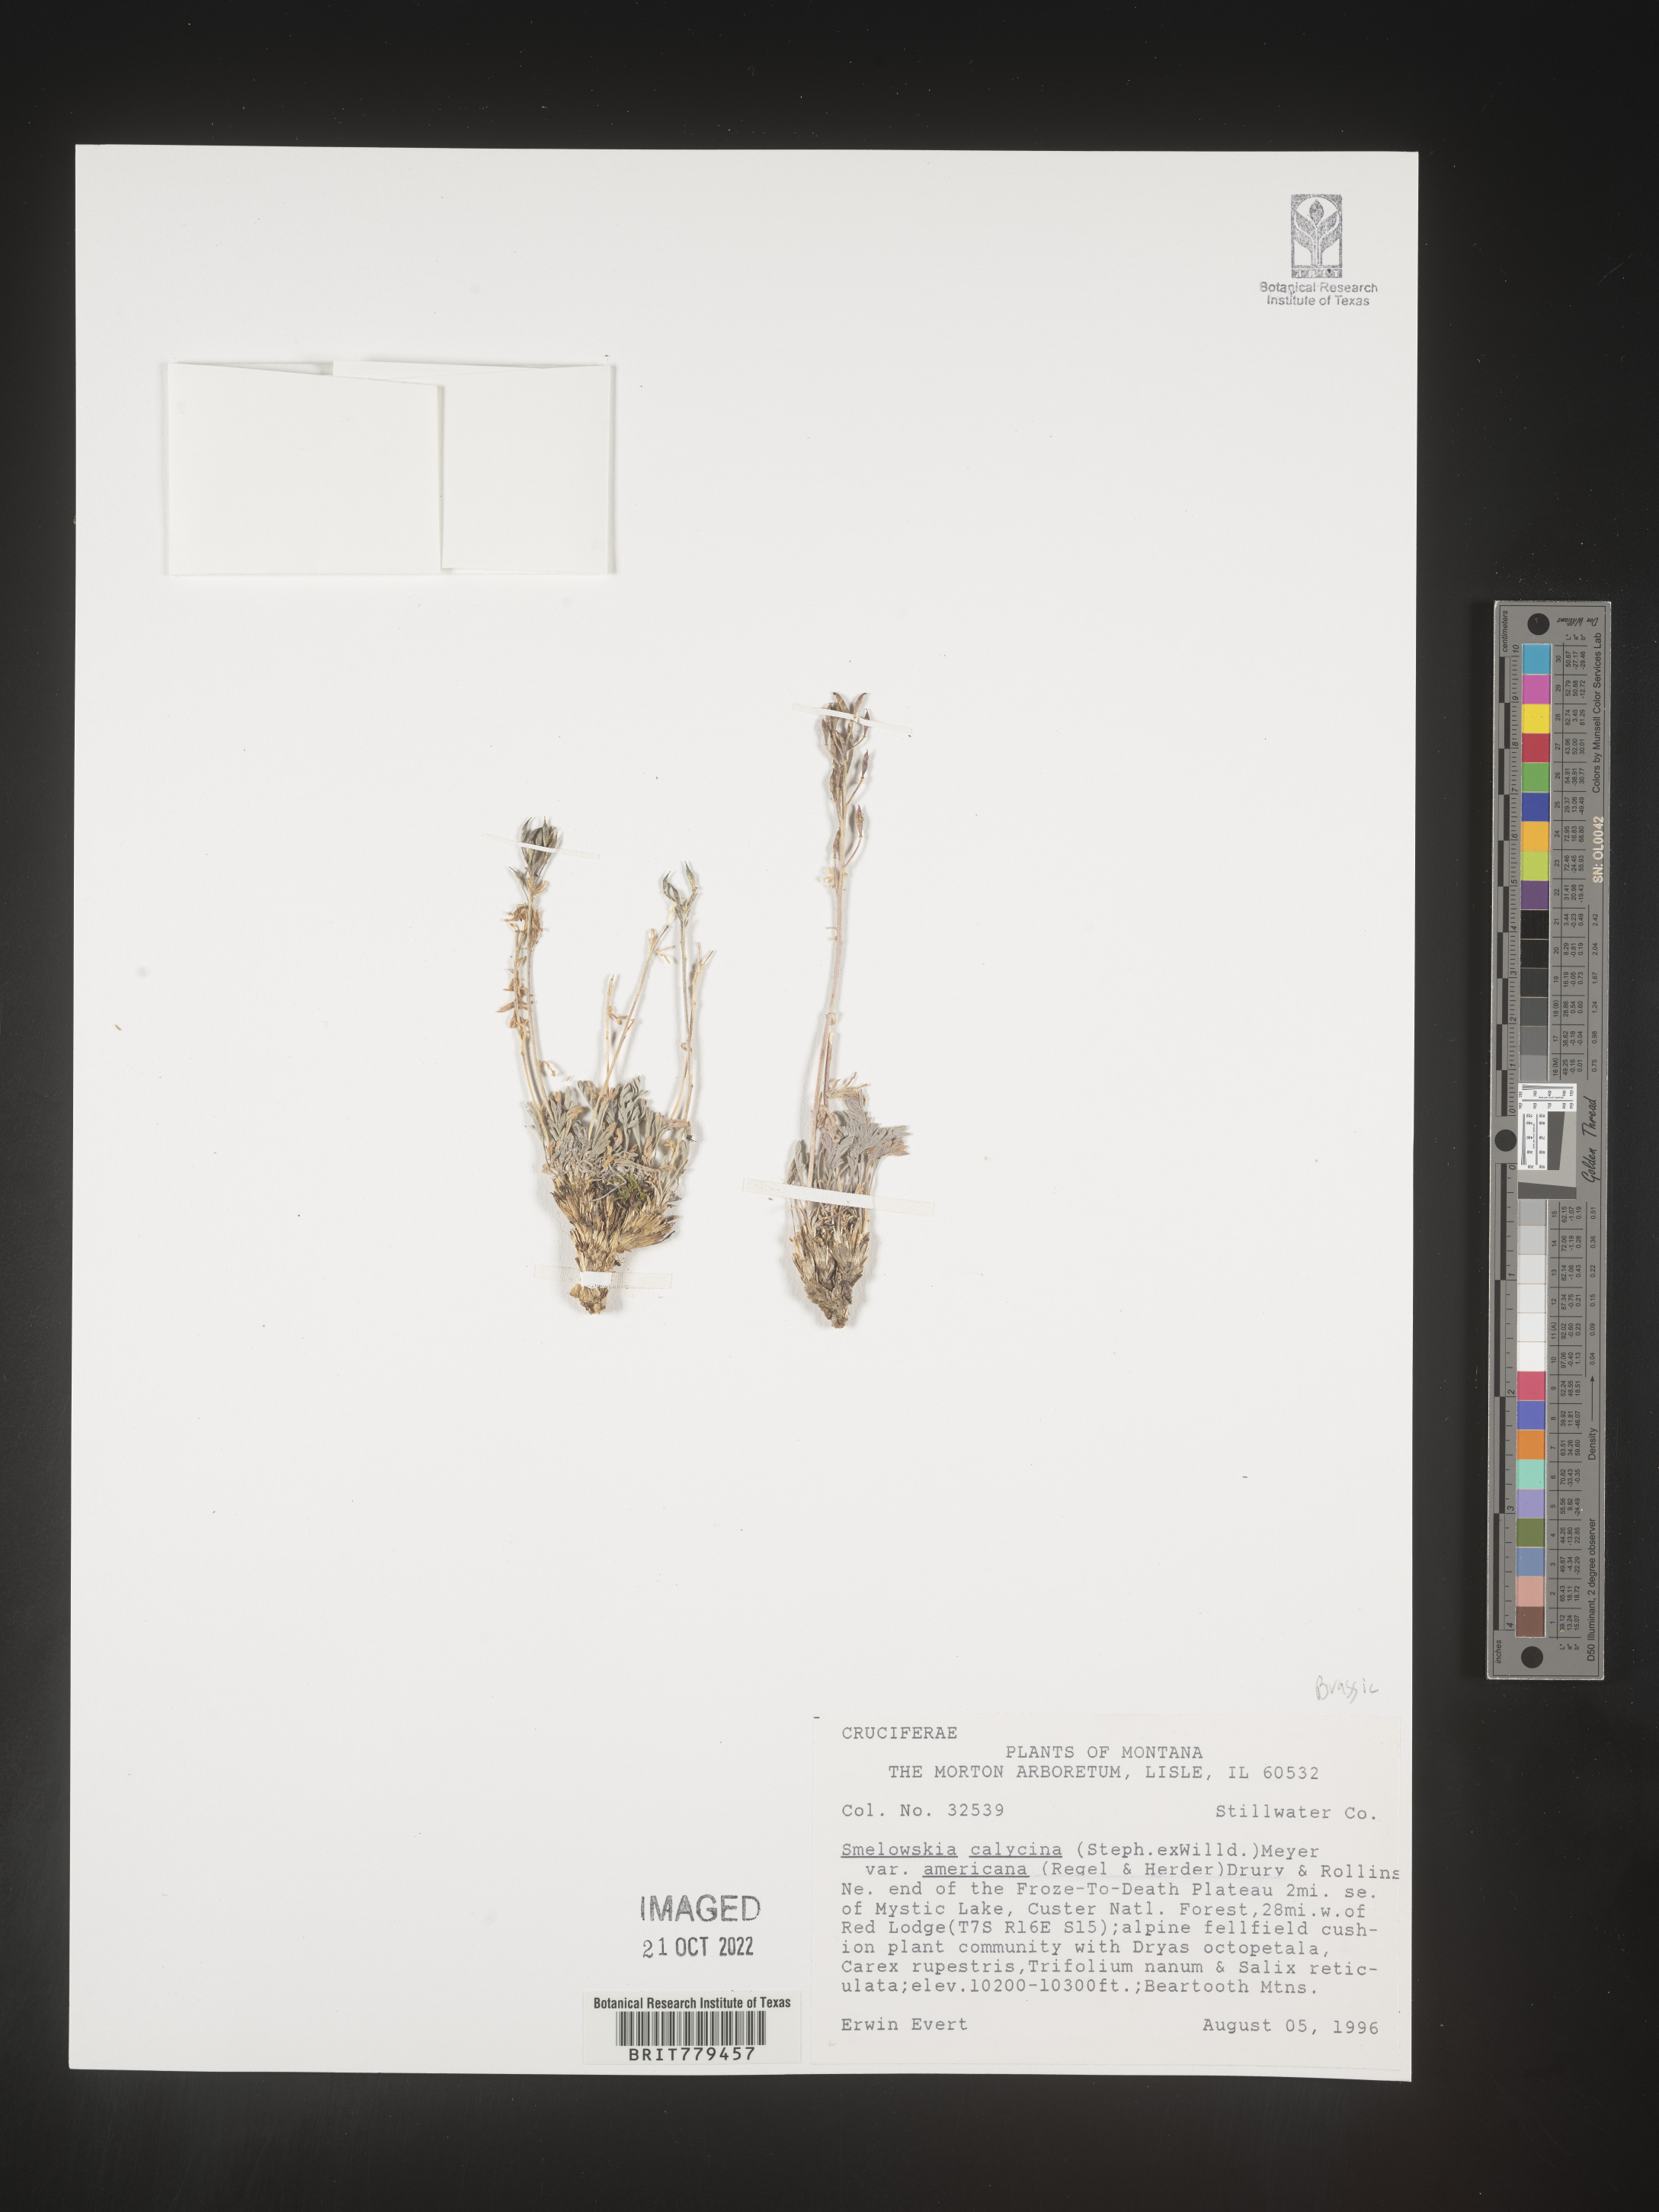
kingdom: Plantae
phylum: Tracheophyta
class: Magnoliopsida
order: Brassicales
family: Brassicaceae
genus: Smelowskia
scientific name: Smelowskia
